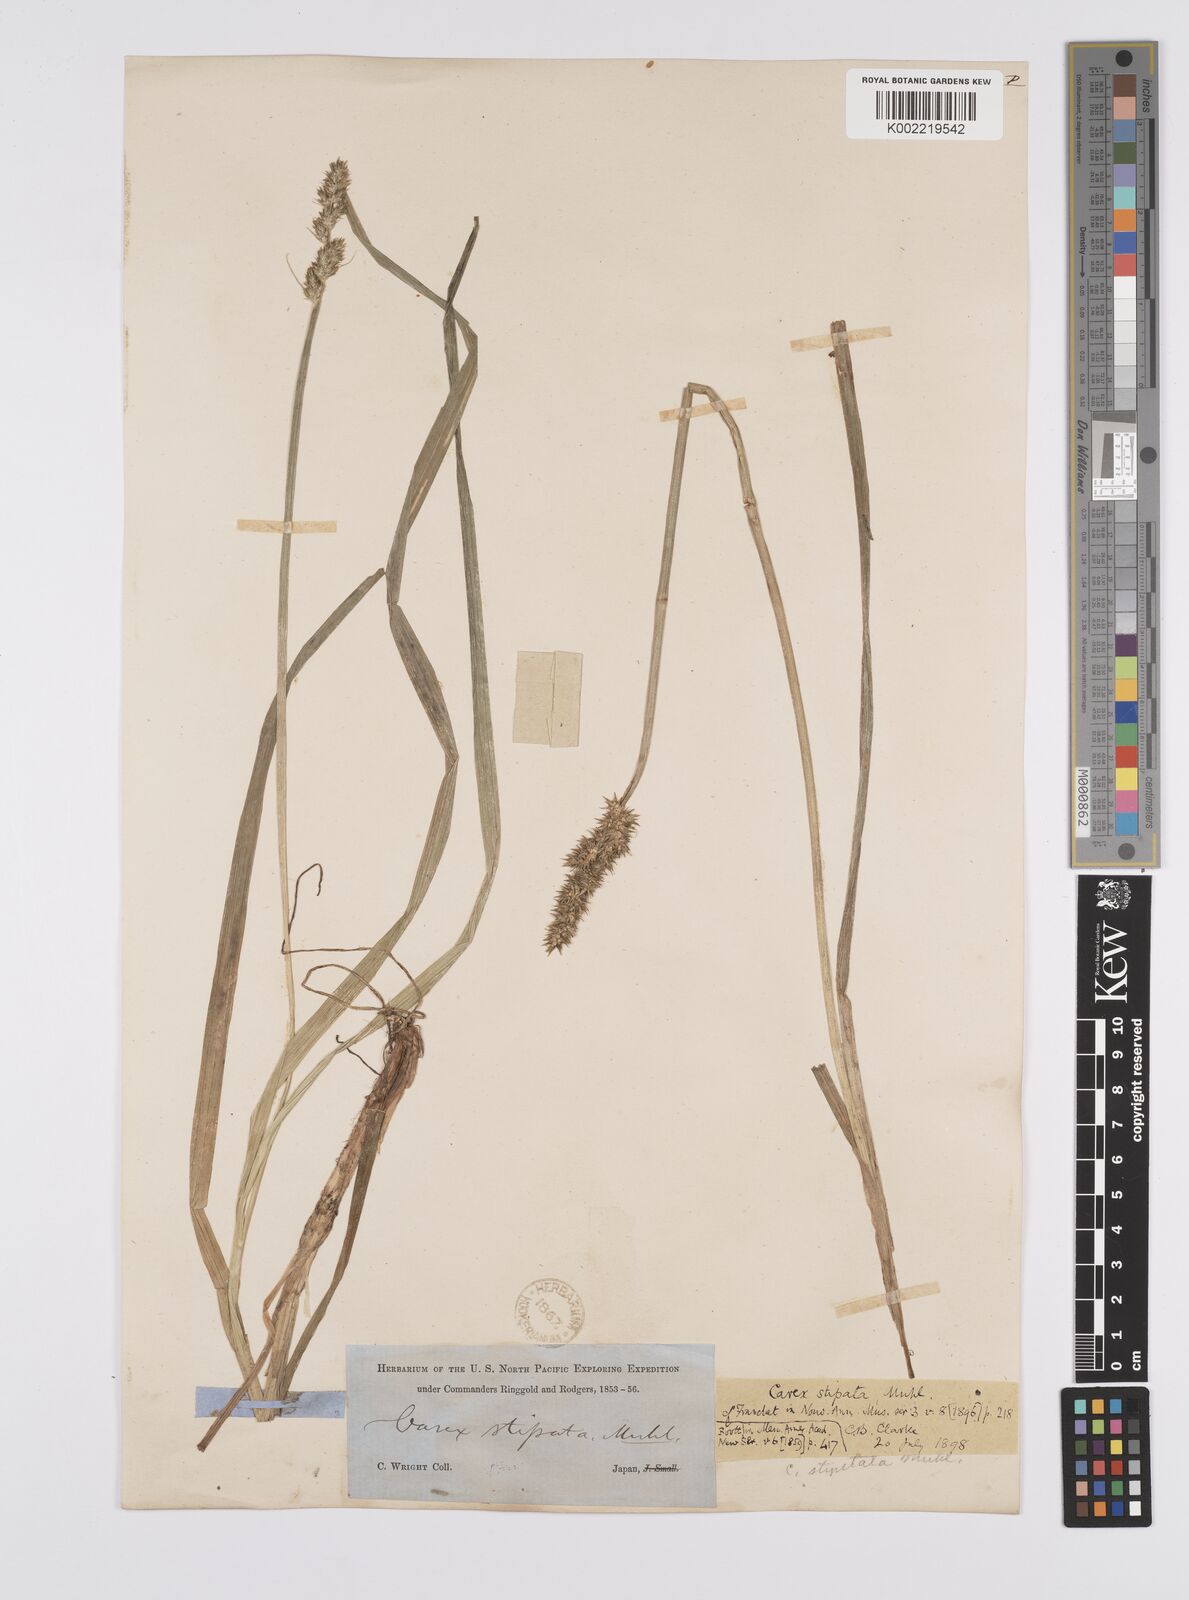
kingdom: Plantae
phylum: Tracheophyta
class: Liliopsida
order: Poales
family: Cyperaceae
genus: Carex
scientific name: Carex stipata
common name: Awl-fruited sedge
